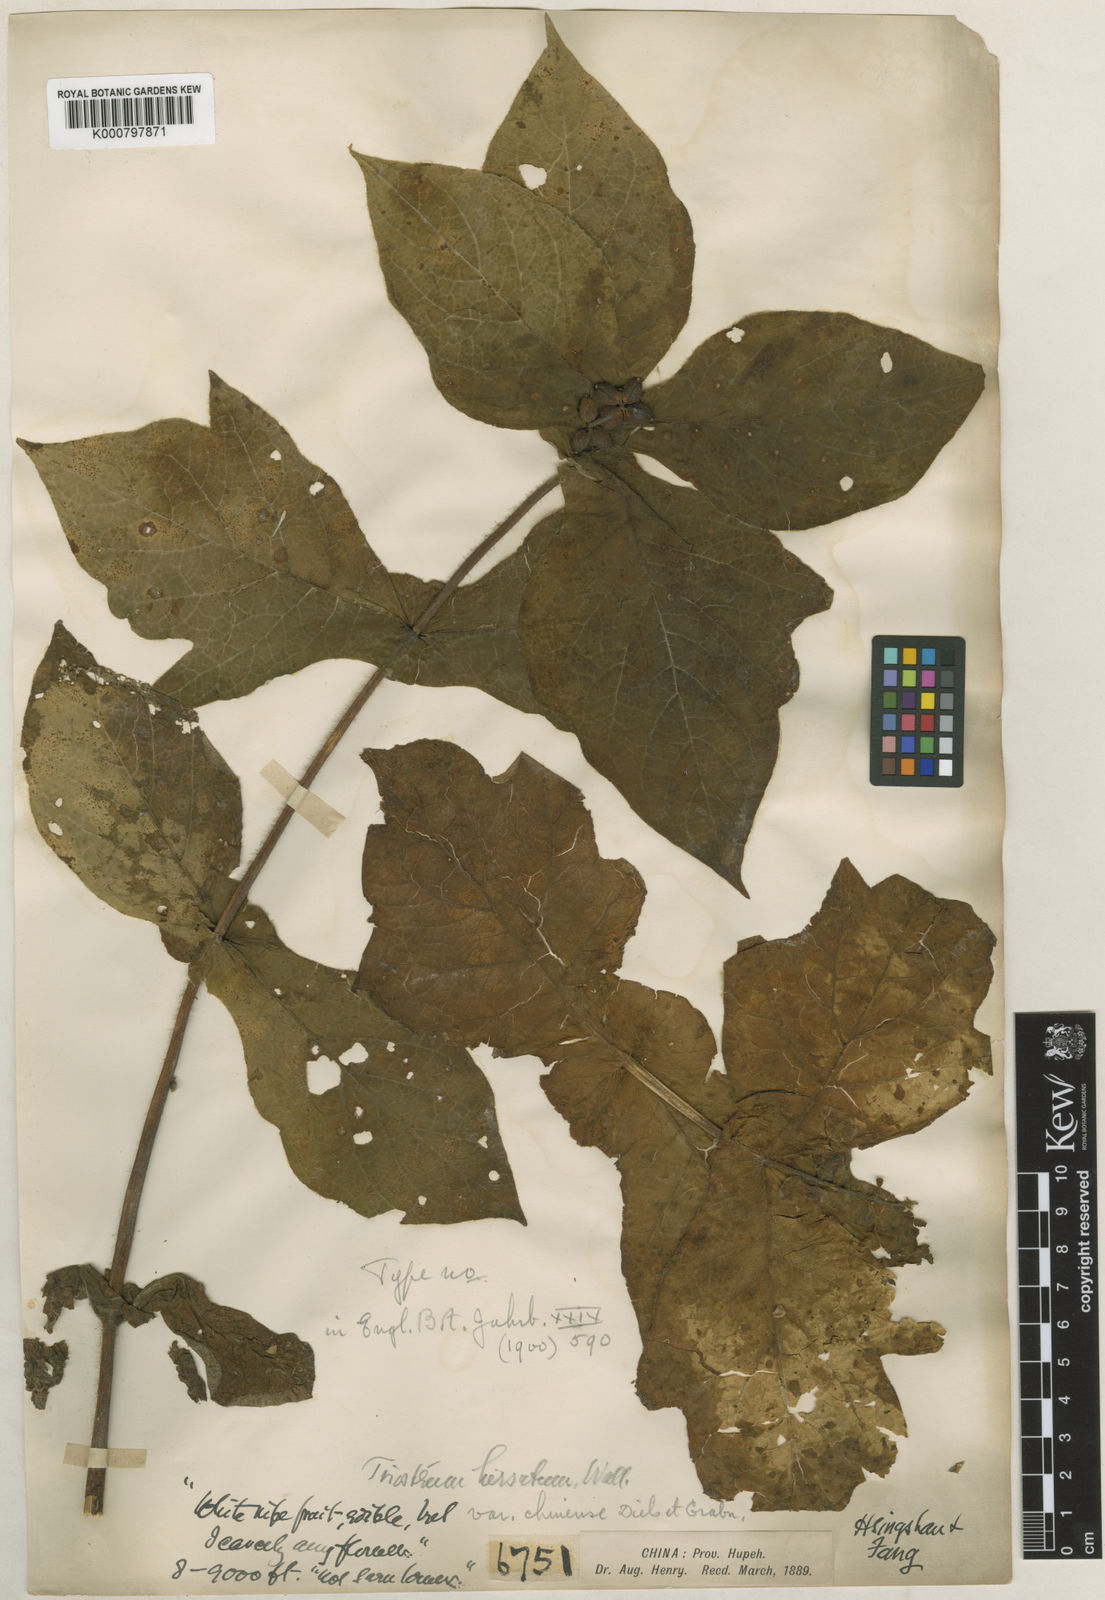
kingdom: Plantae
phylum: Tracheophyta
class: Magnoliopsida
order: Dipsacales
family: Caprifoliaceae
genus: Triosteum
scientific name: Triosteum himalayanum
